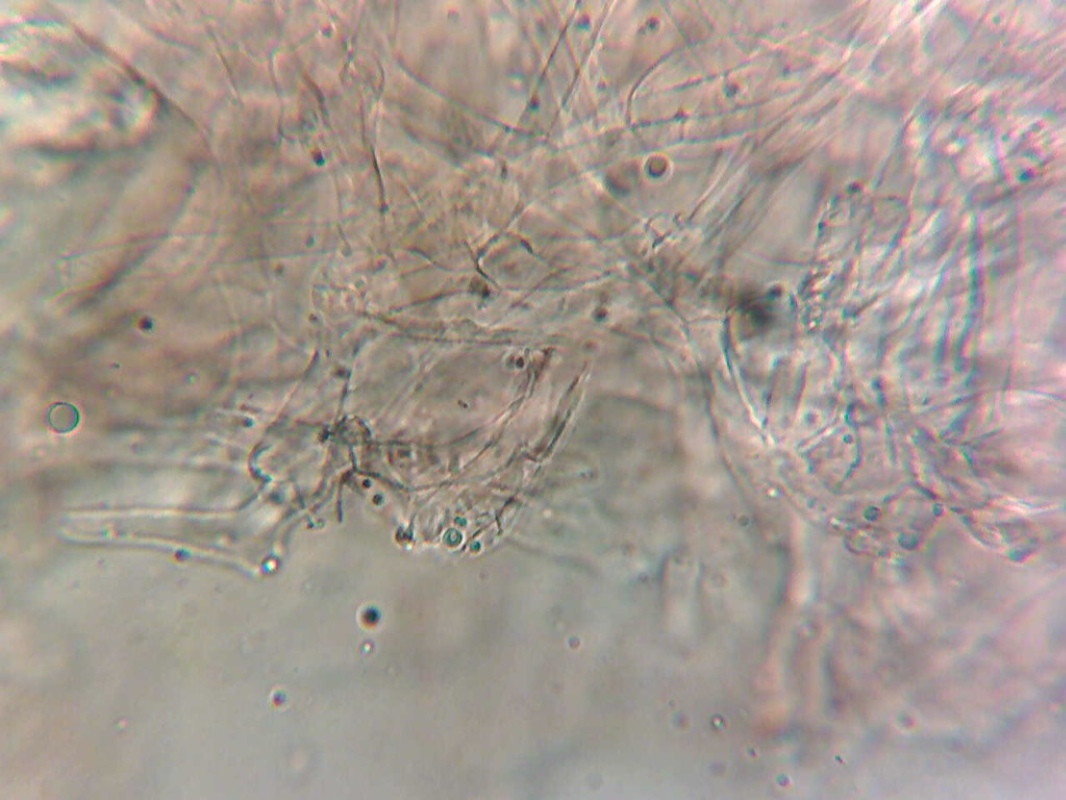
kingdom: Fungi
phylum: Basidiomycota
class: Agaricomycetes
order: Russulales
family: Russulaceae
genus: Russula
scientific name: Russula minutula
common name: liden skørhat
